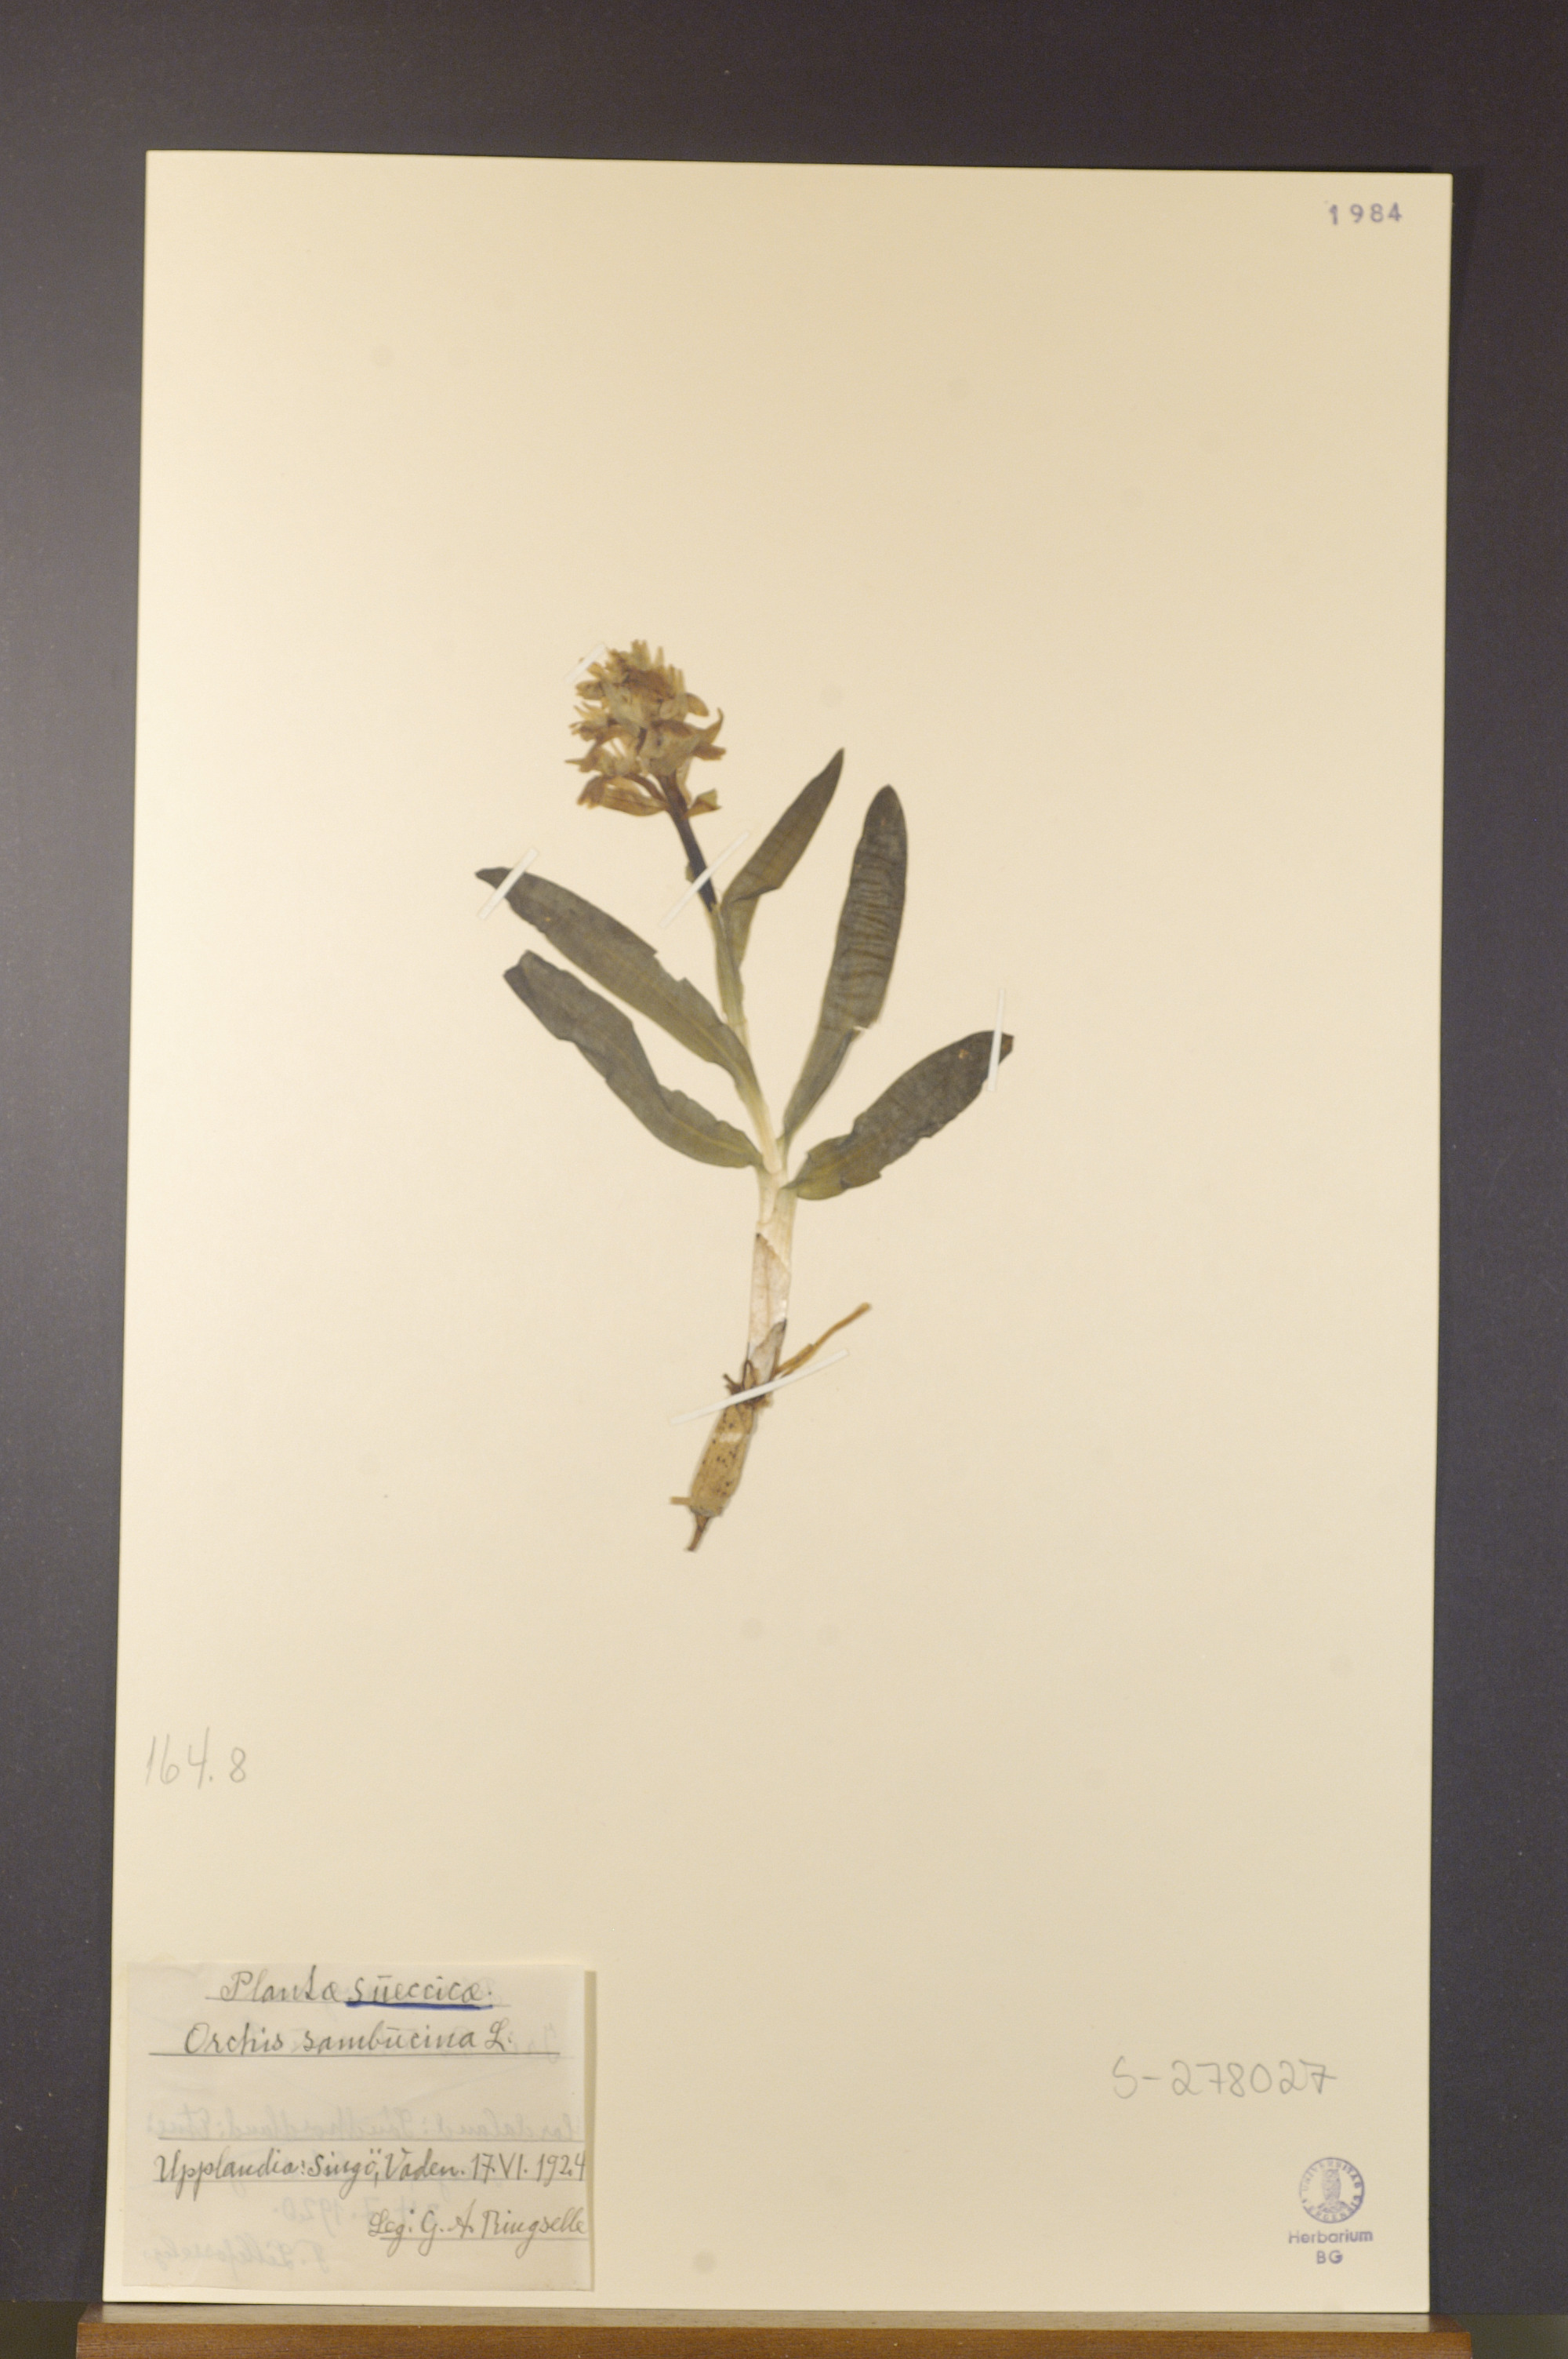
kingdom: Plantae
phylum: Tracheophyta
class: Liliopsida
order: Asparagales
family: Orchidaceae
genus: Dactylorhiza
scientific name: Dactylorhiza sambucina
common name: Elder-flowered orchid
